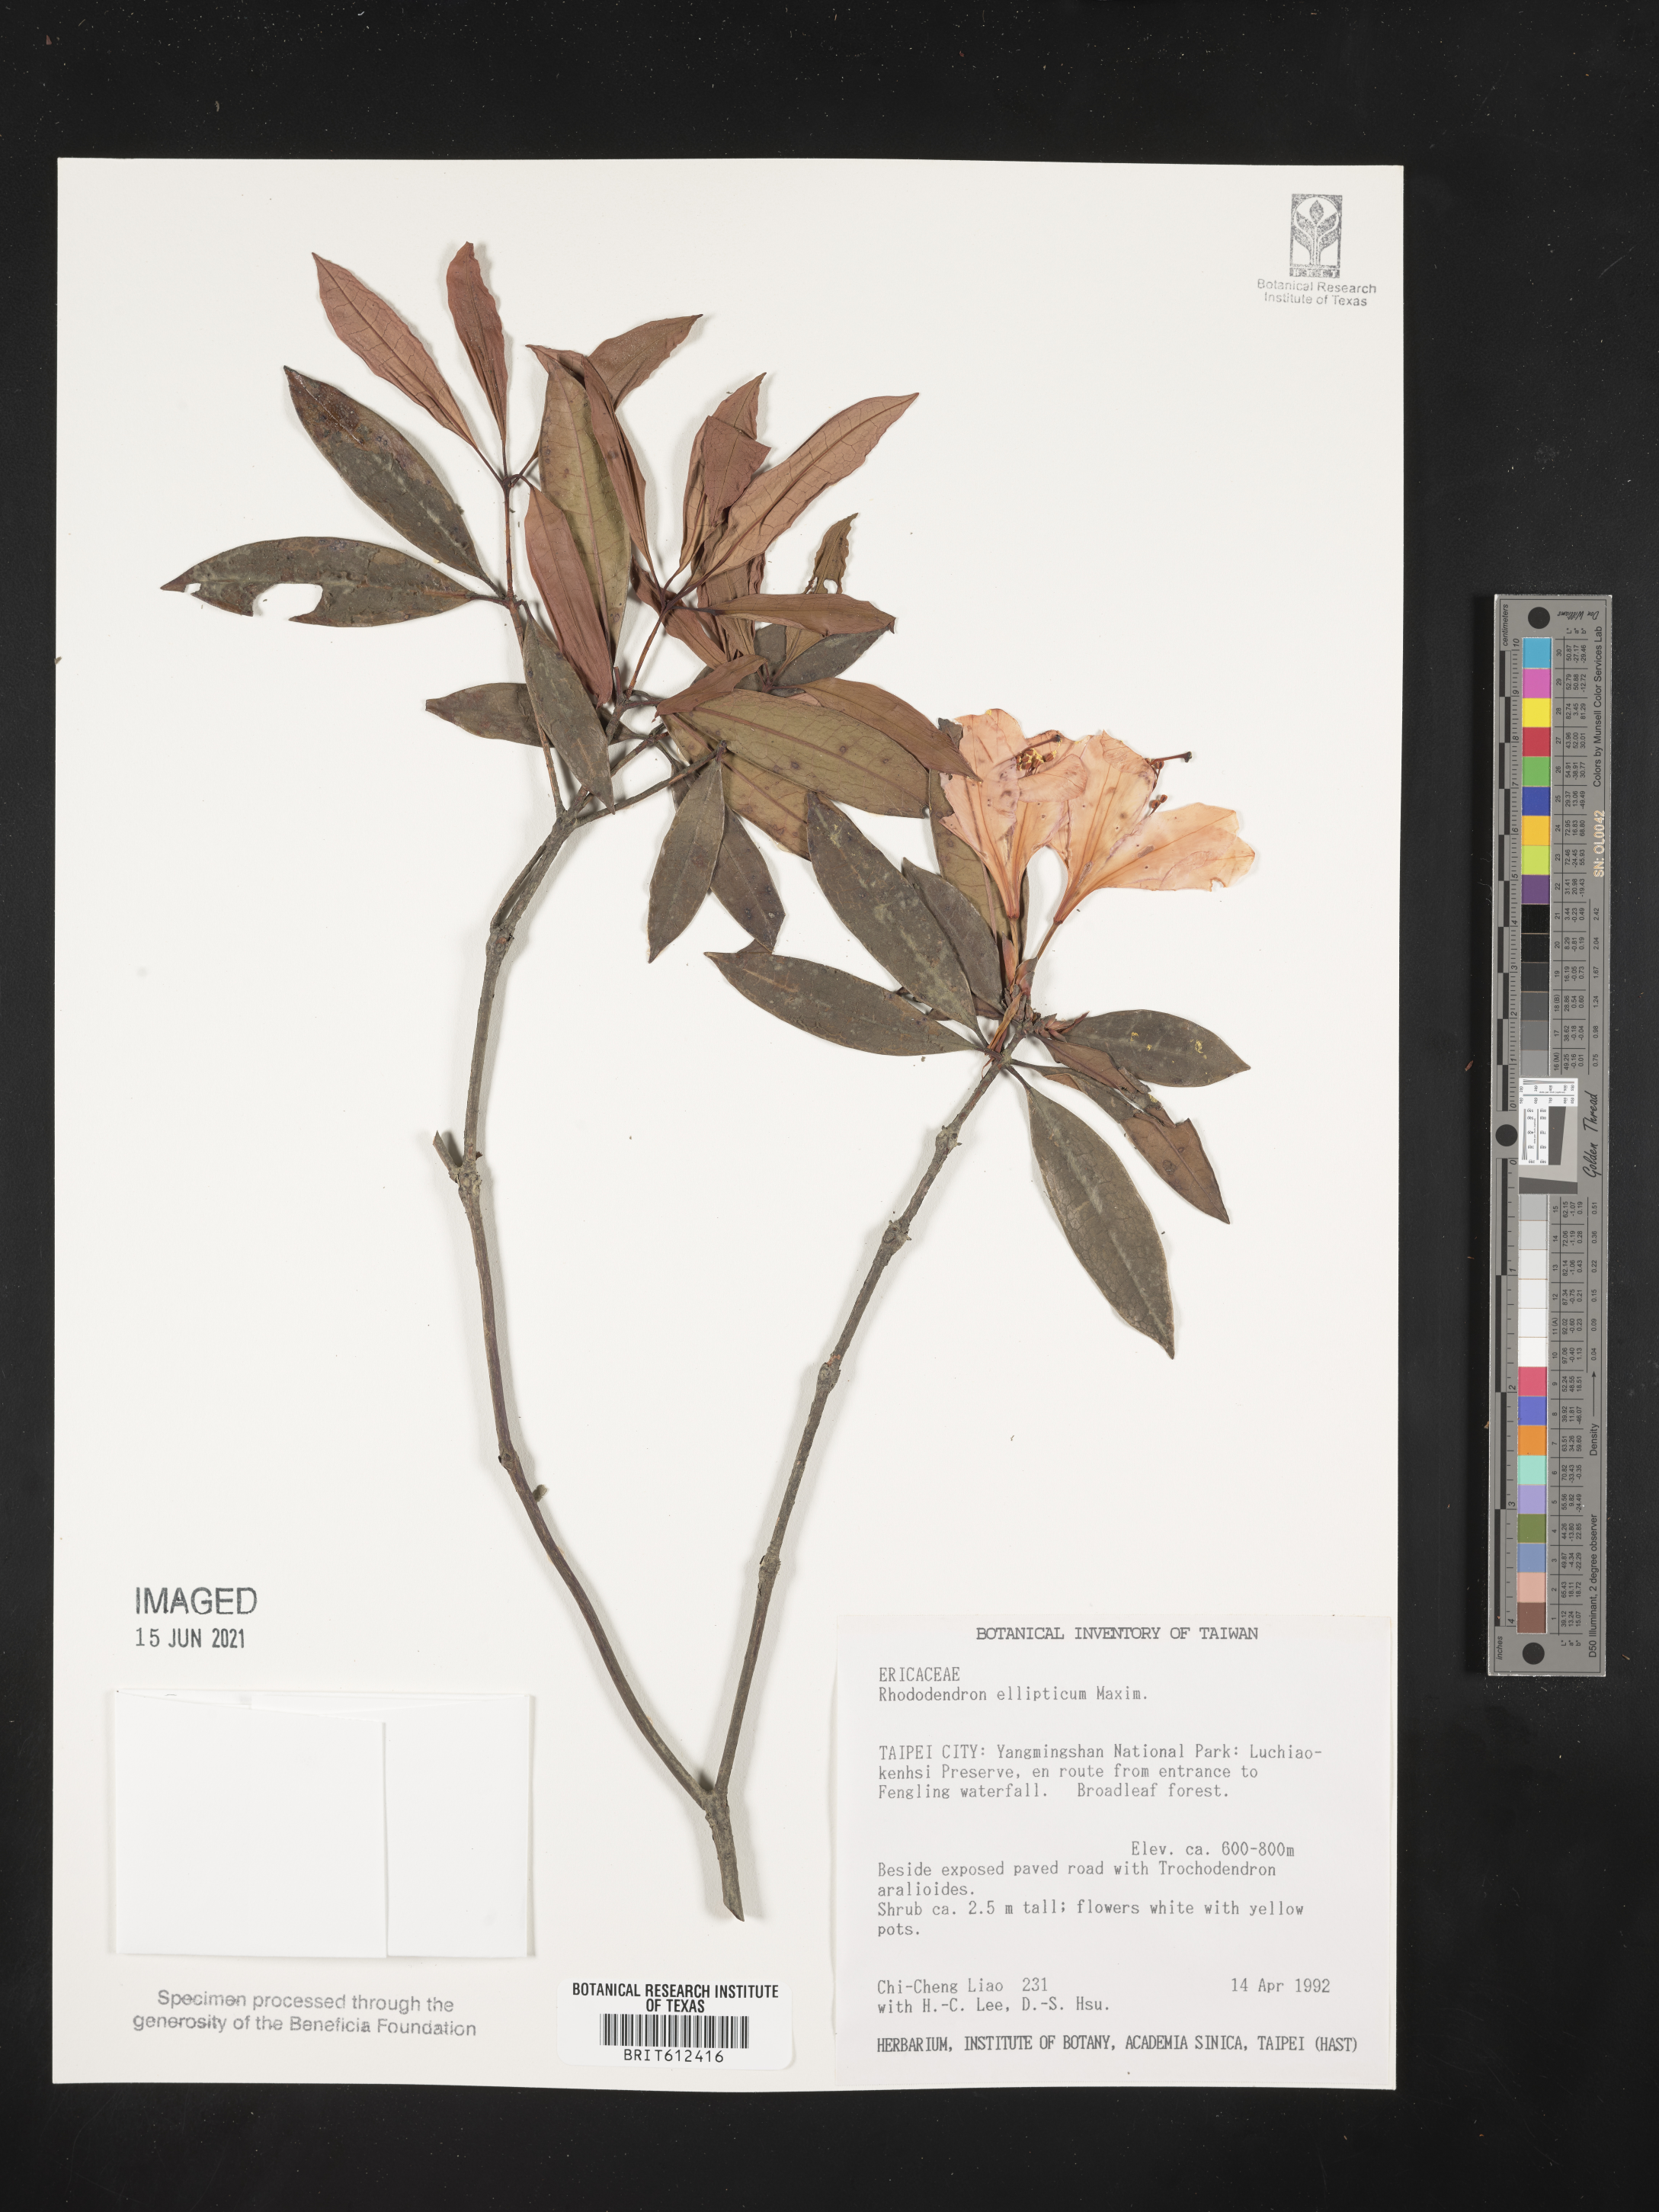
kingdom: Plantae
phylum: Tracheophyta
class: Magnoliopsida
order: Ericales
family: Ericaceae
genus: Rhododendron
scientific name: Rhododendron latoucheae
